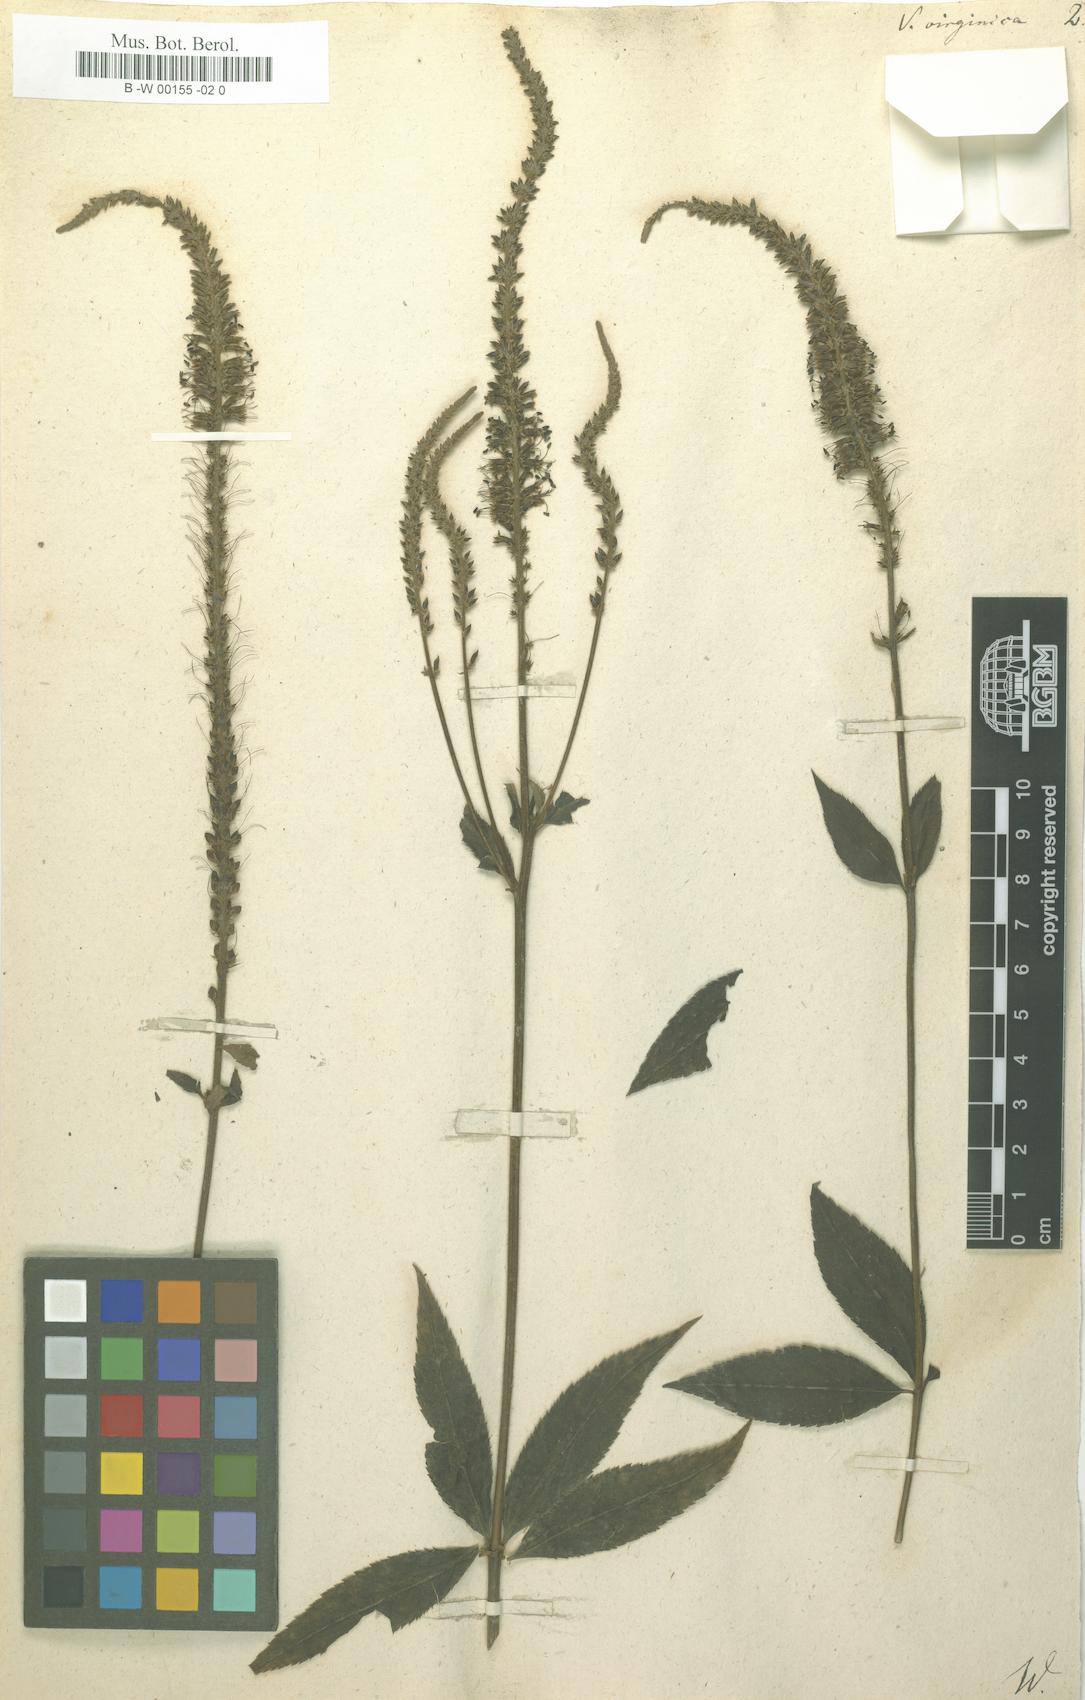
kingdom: Plantae
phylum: Tracheophyta
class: Magnoliopsida
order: Lamiales
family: Plantaginaceae
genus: Veronicastrum
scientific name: Veronicastrum virginicum
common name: Blackroot
